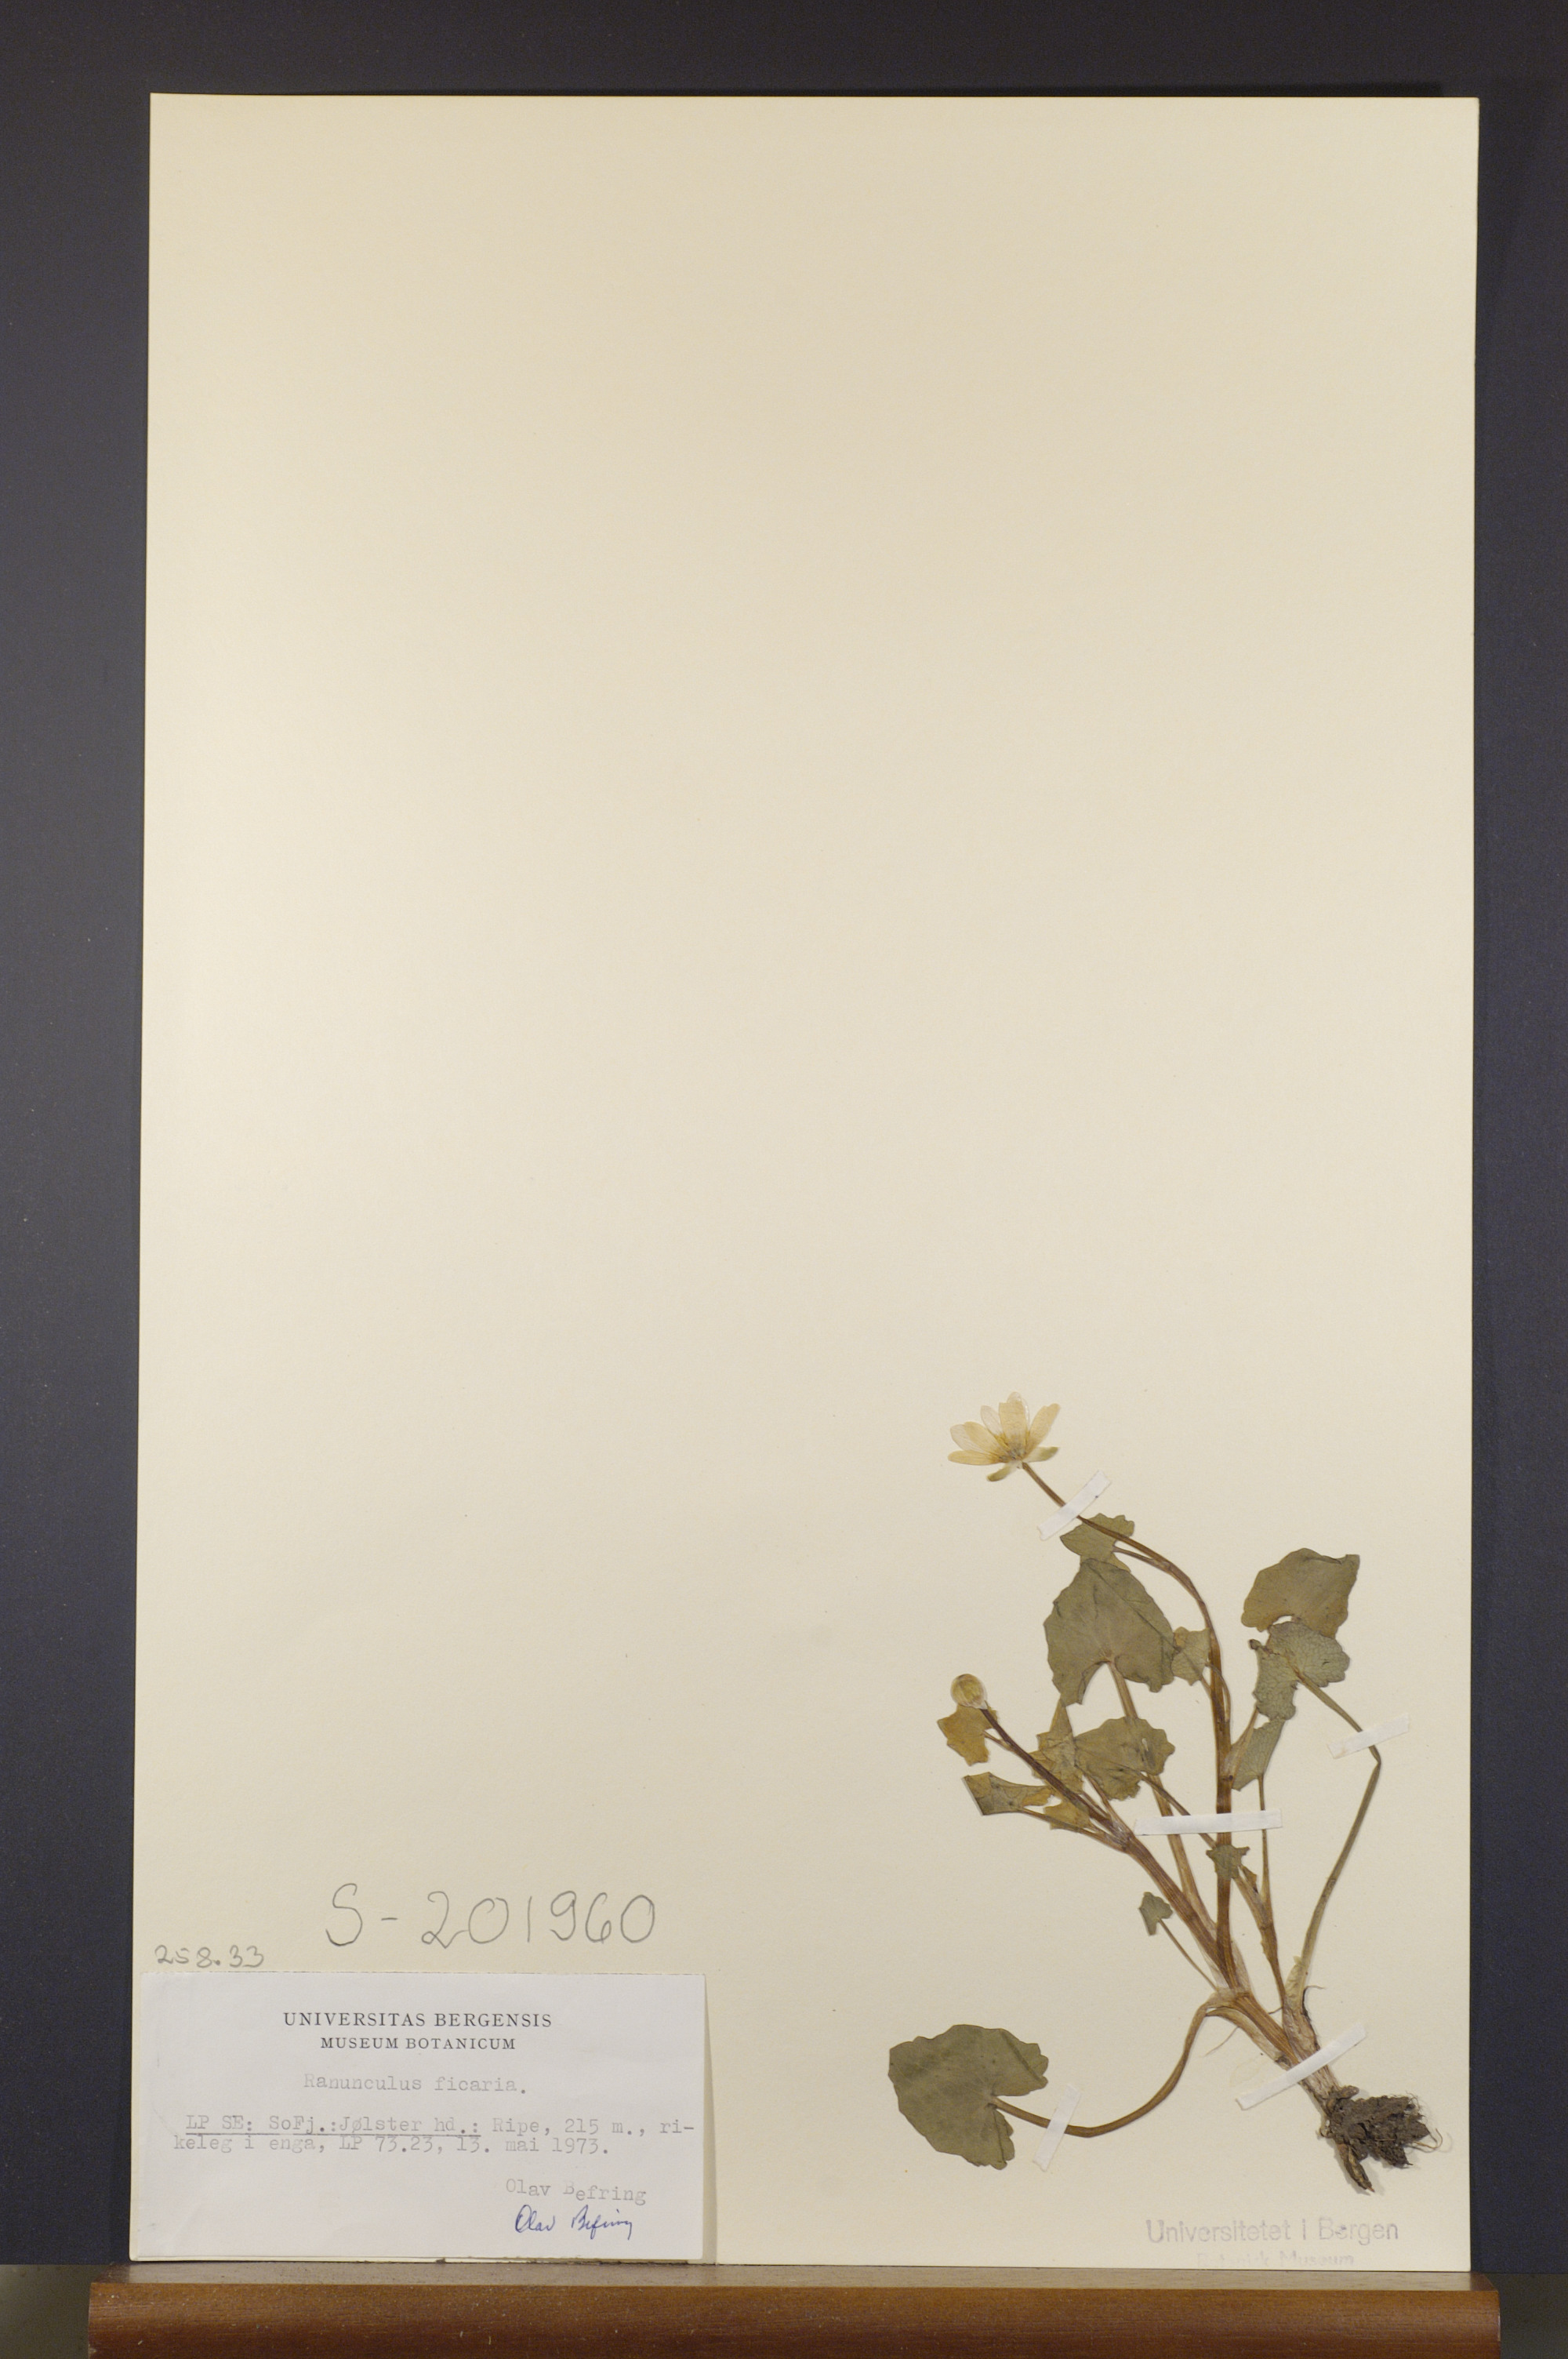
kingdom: Plantae
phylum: Tracheophyta
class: Magnoliopsida
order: Ranunculales
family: Ranunculaceae
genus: Ficaria
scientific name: Ficaria verna
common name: Lesser celandine
